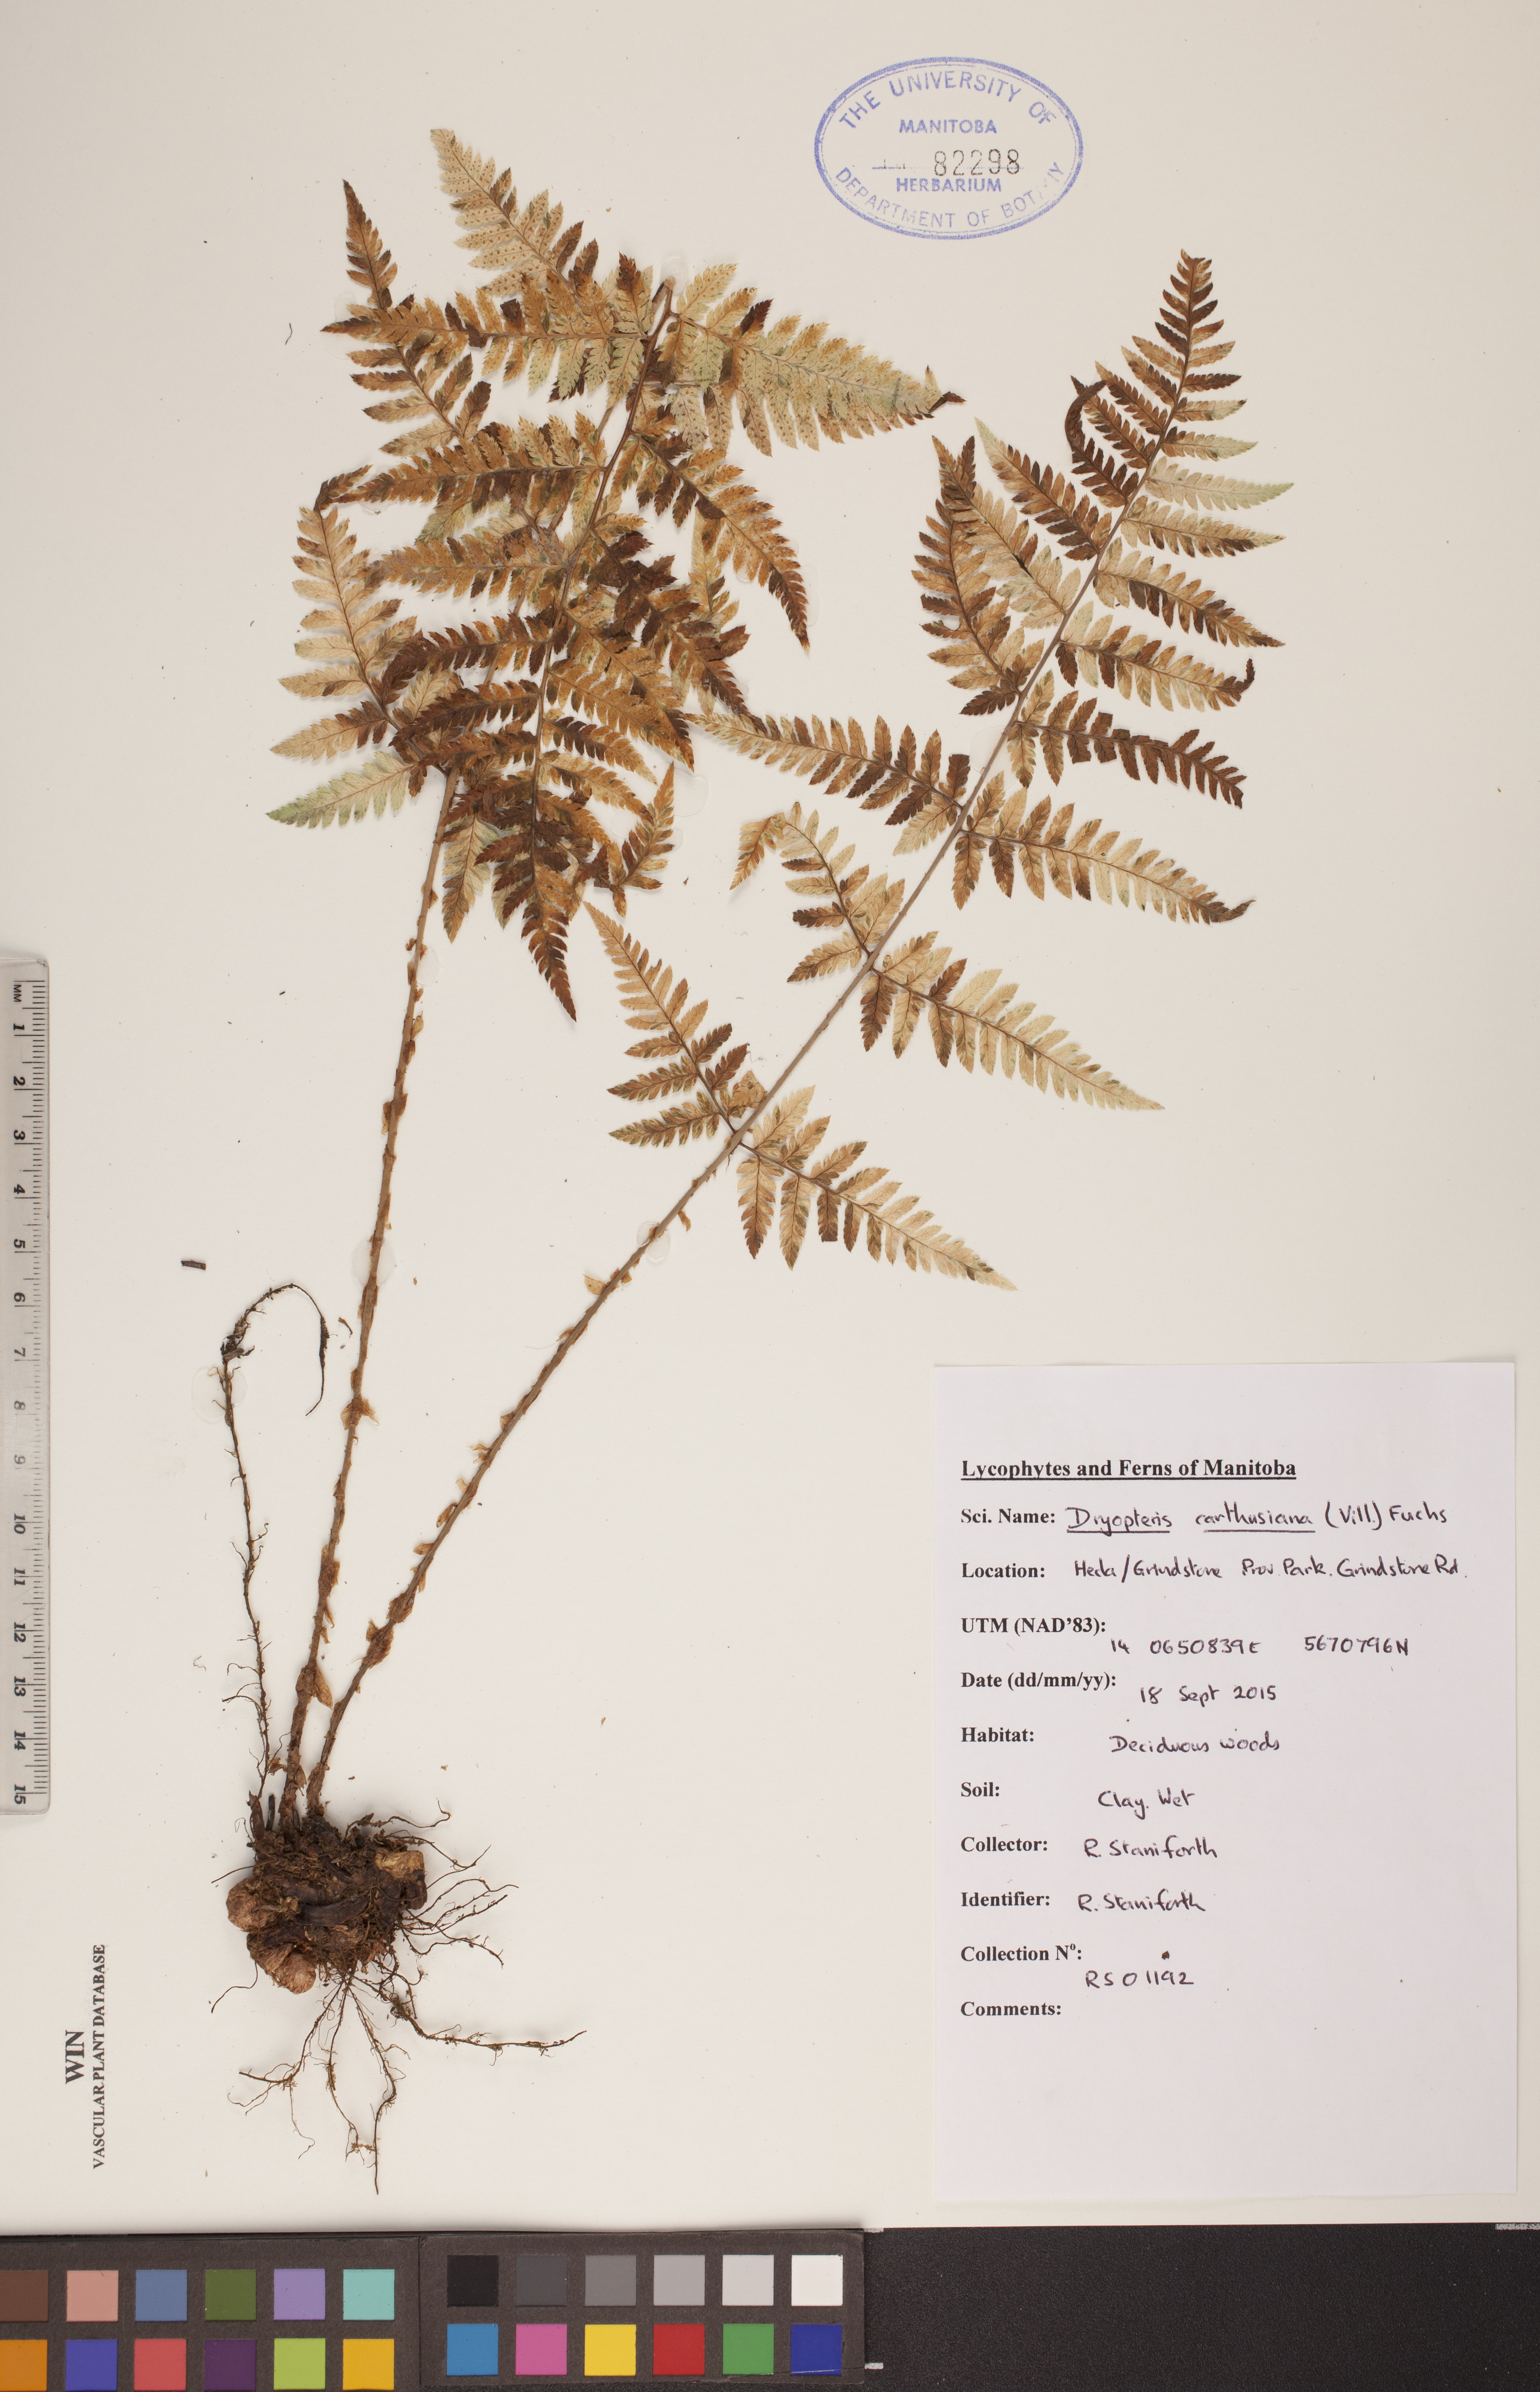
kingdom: Plantae
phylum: Tracheophyta
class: Polypodiopsida
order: Polypodiales
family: Dryopteridaceae
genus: Dryopteris
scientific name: Dryopteris carthusiana
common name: Narrow buckler-fern
